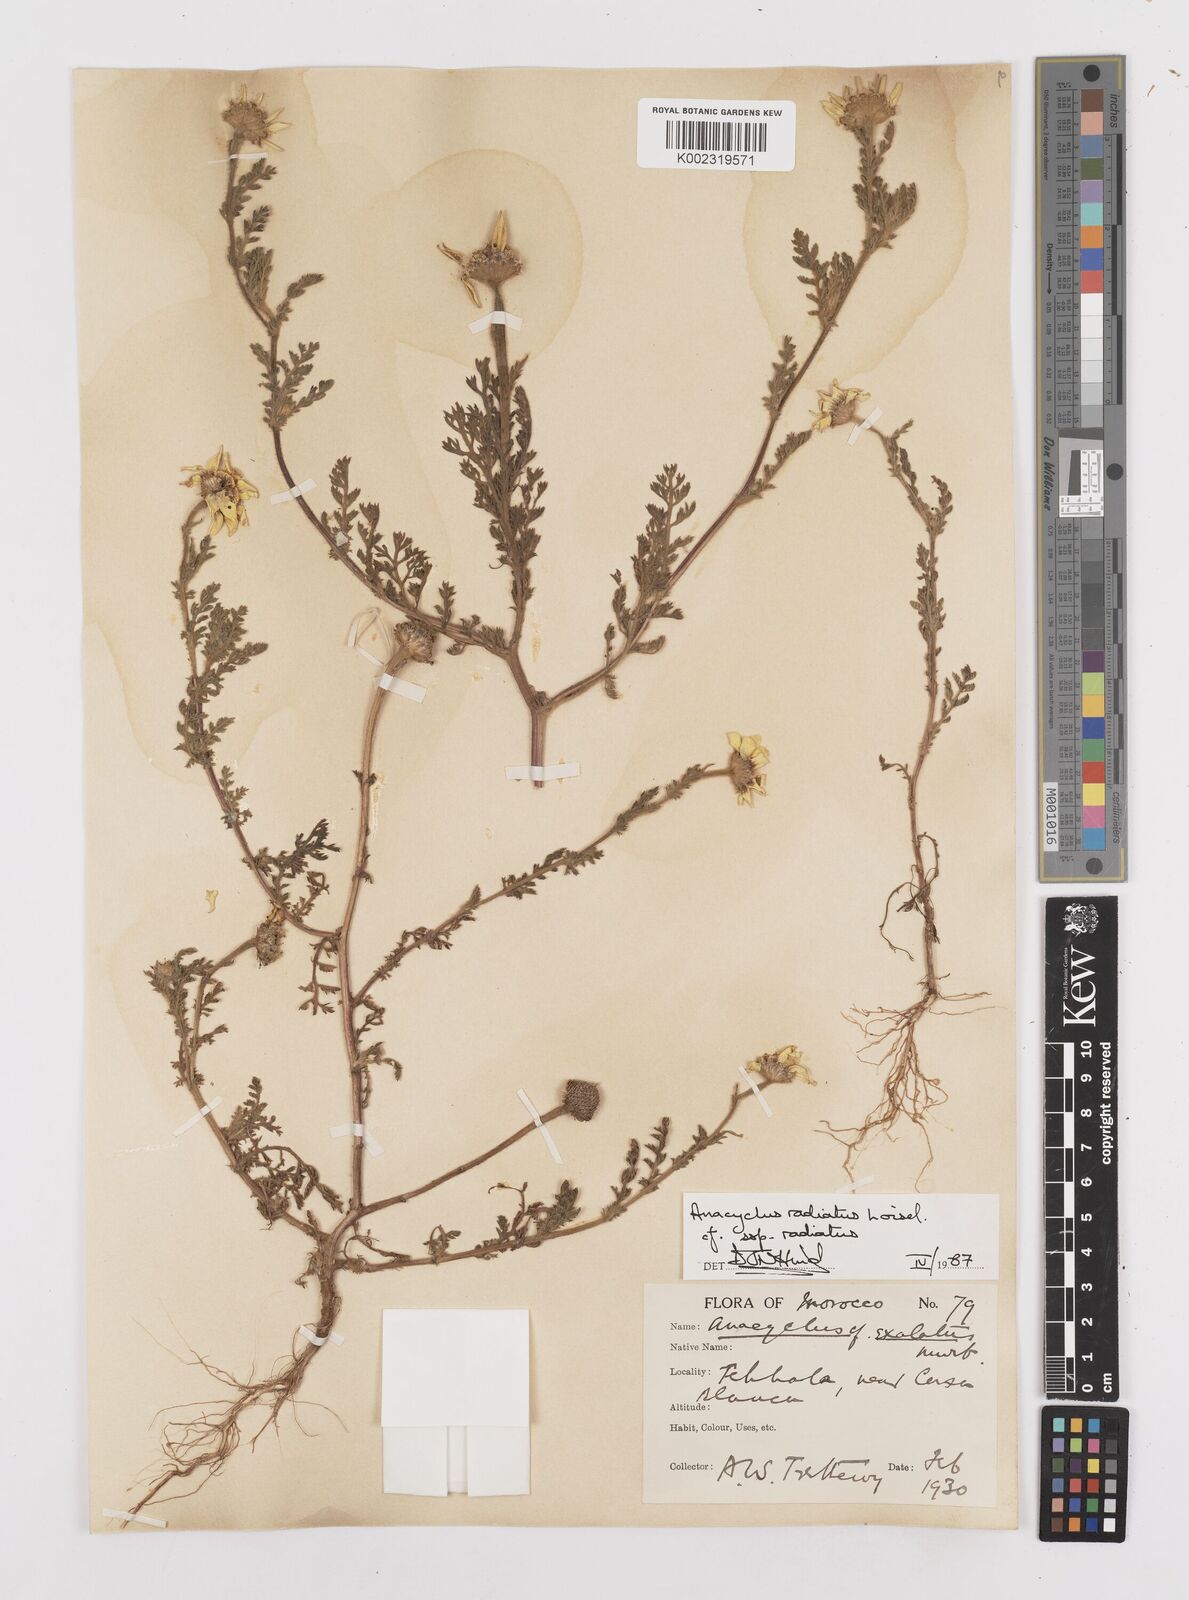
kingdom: Plantae
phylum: Tracheophyta
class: Magnoliopsida
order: Asterales
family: Asteraceae
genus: Anacyclus
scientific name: Anacyclus radiatus
